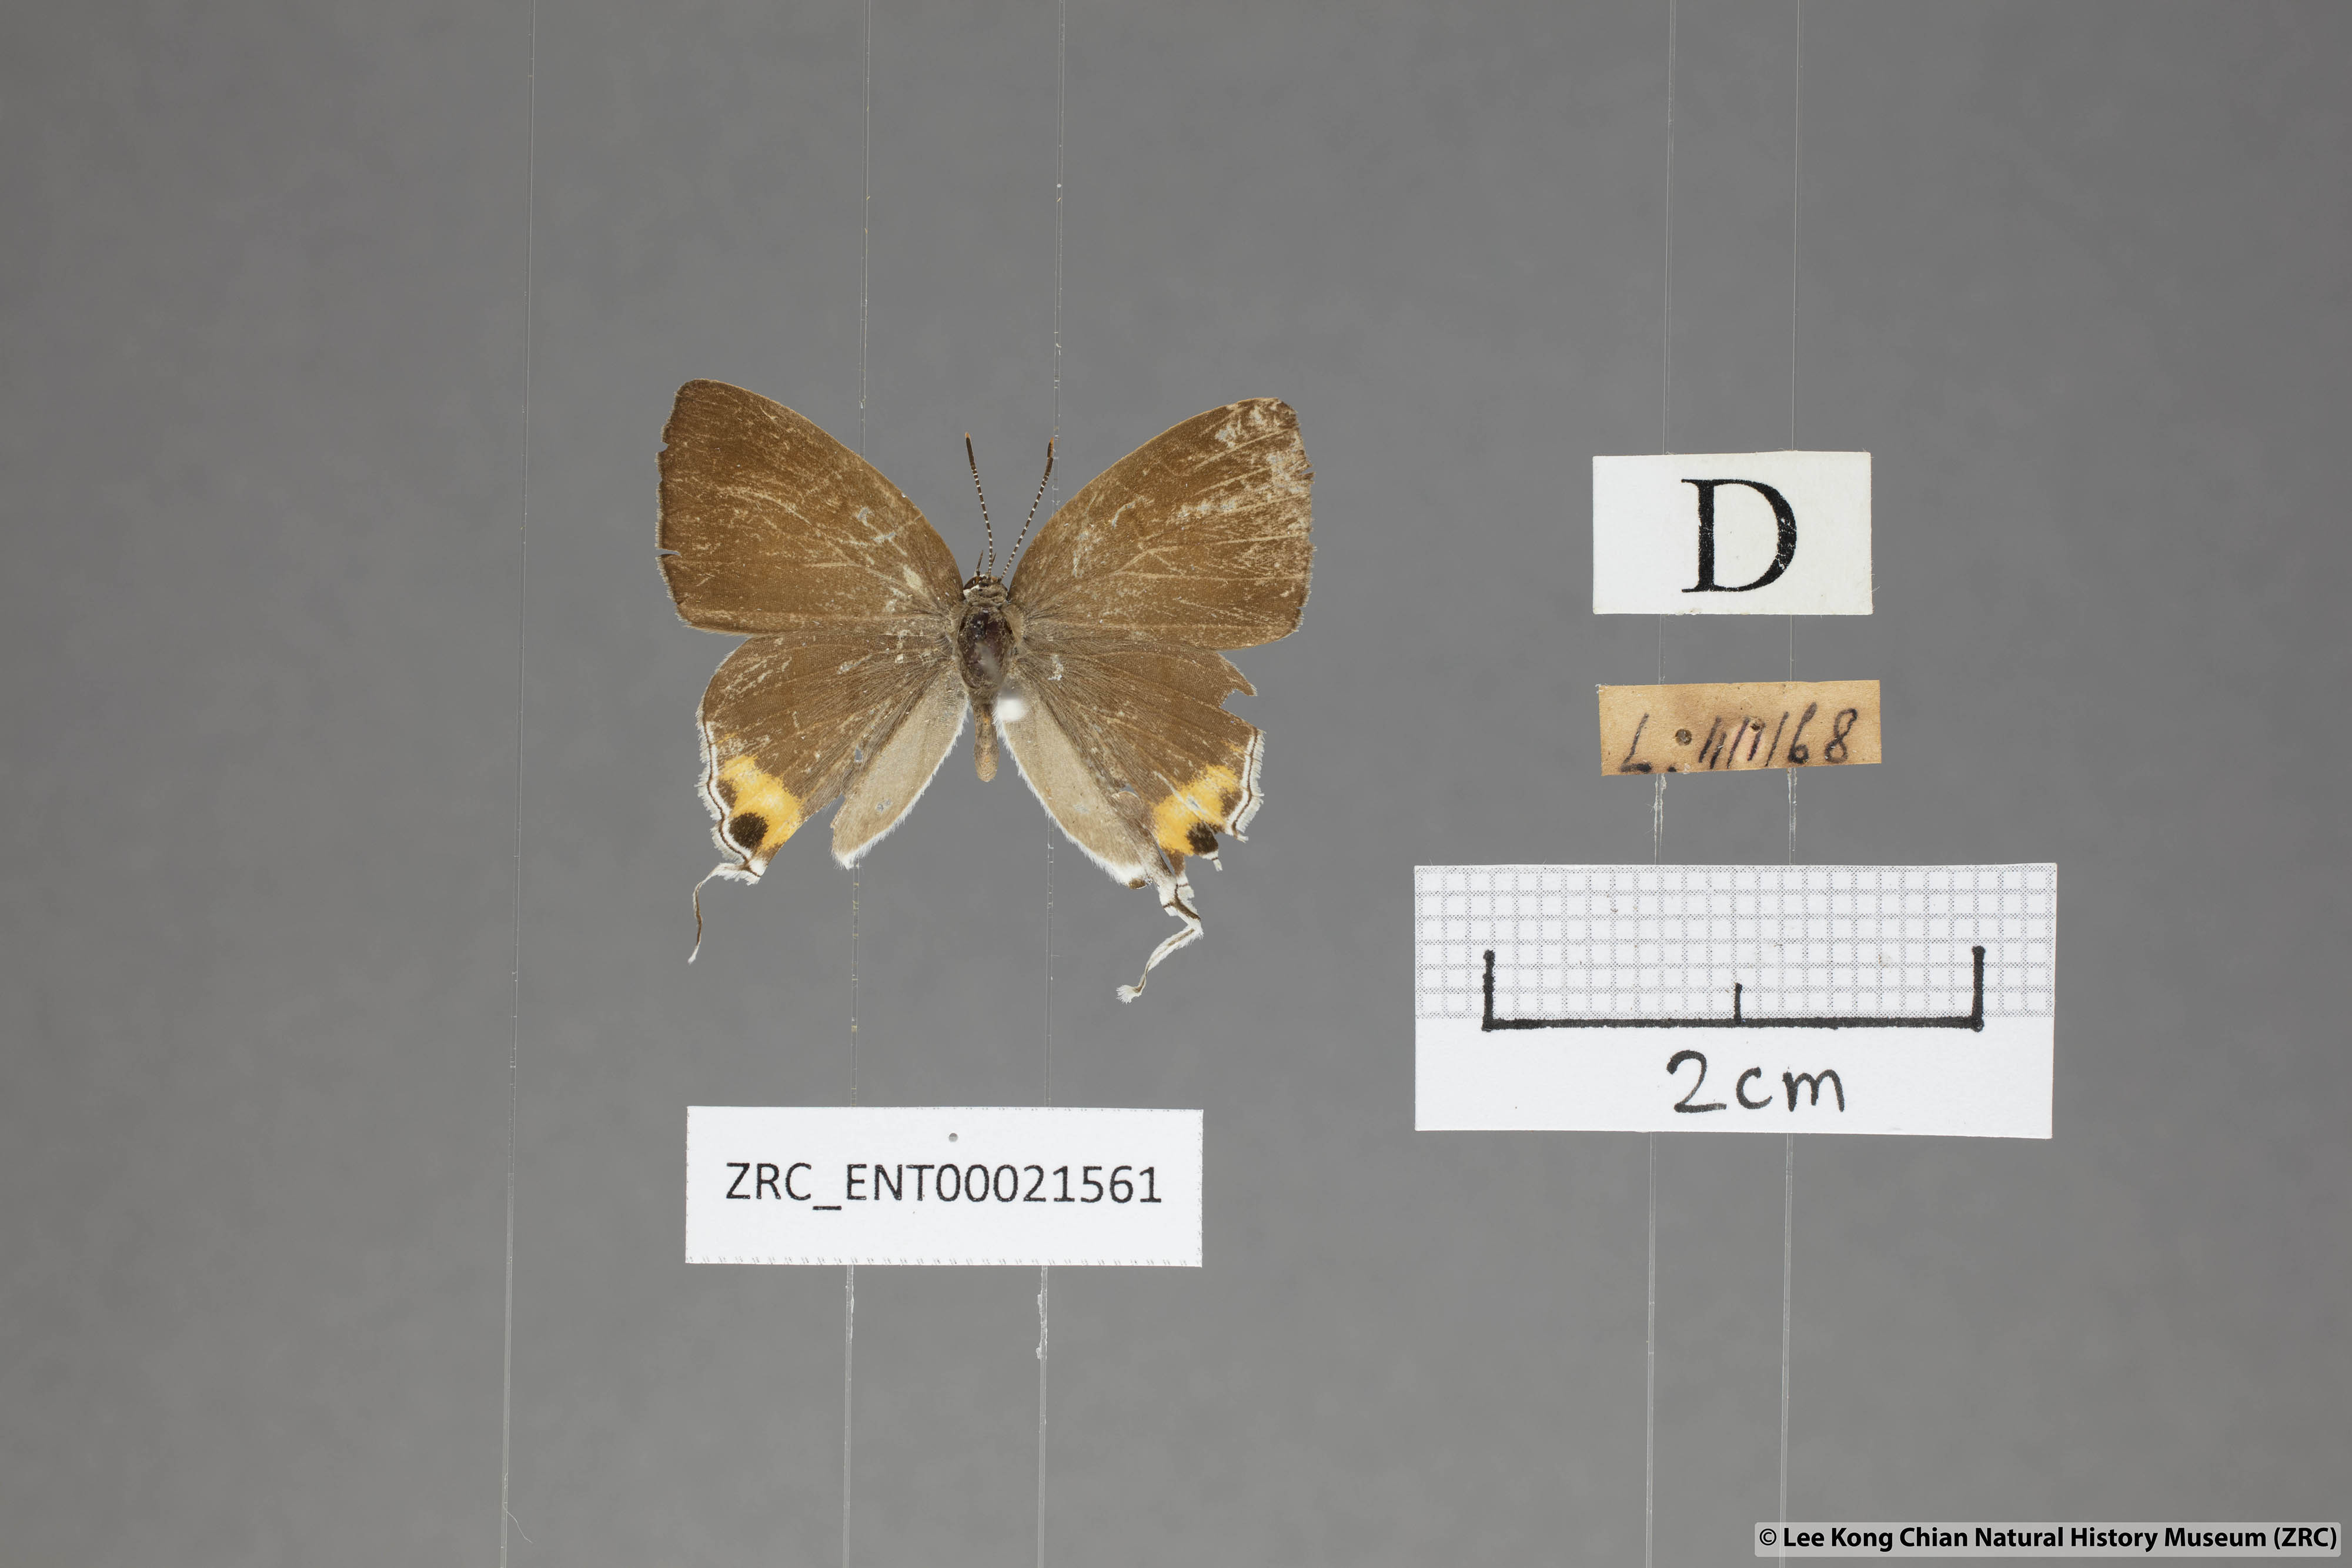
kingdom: Animalia
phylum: Arthropoda
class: Insecta
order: Lepidoptera
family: Lycaenidae
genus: Hypolycaena
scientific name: Hypolycaena thecloides
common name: Dark tit
